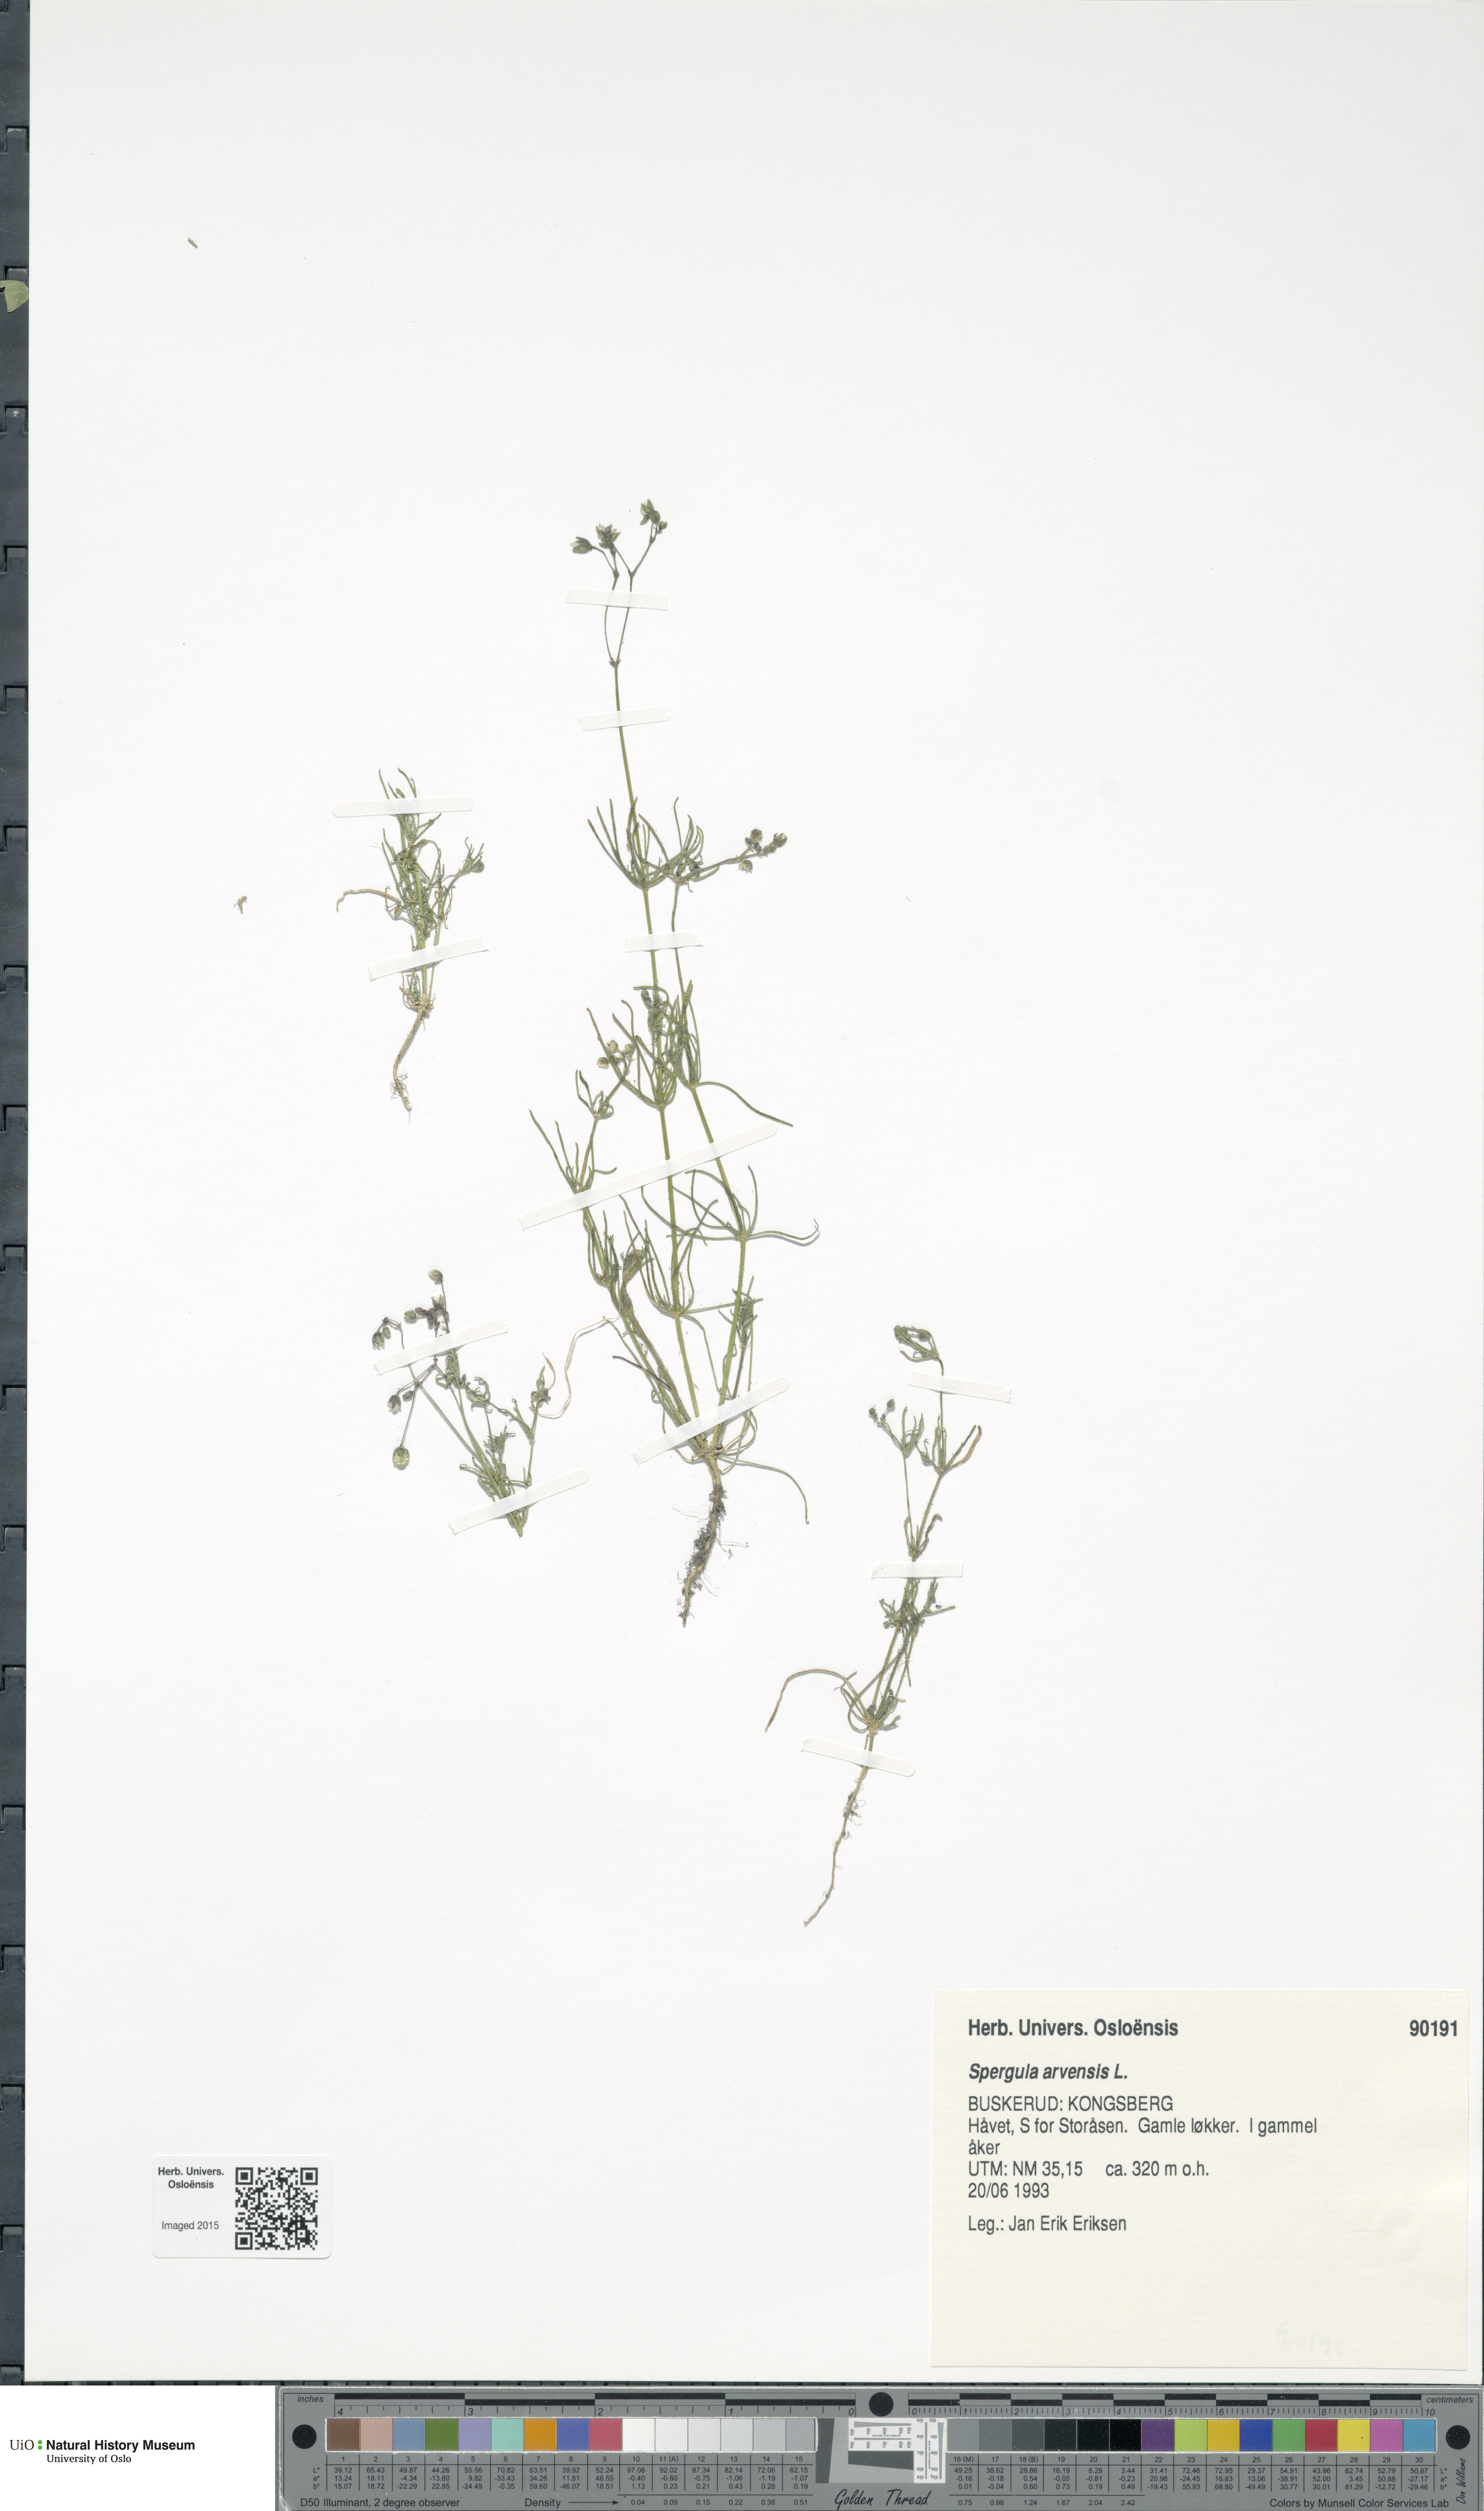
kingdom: Plantae
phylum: Tracheophyta
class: Magnoliopsida
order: Caryophyllales
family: Caryophyllaceae
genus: Spergula
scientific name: Spergula arvensis
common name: Corn spurrey
